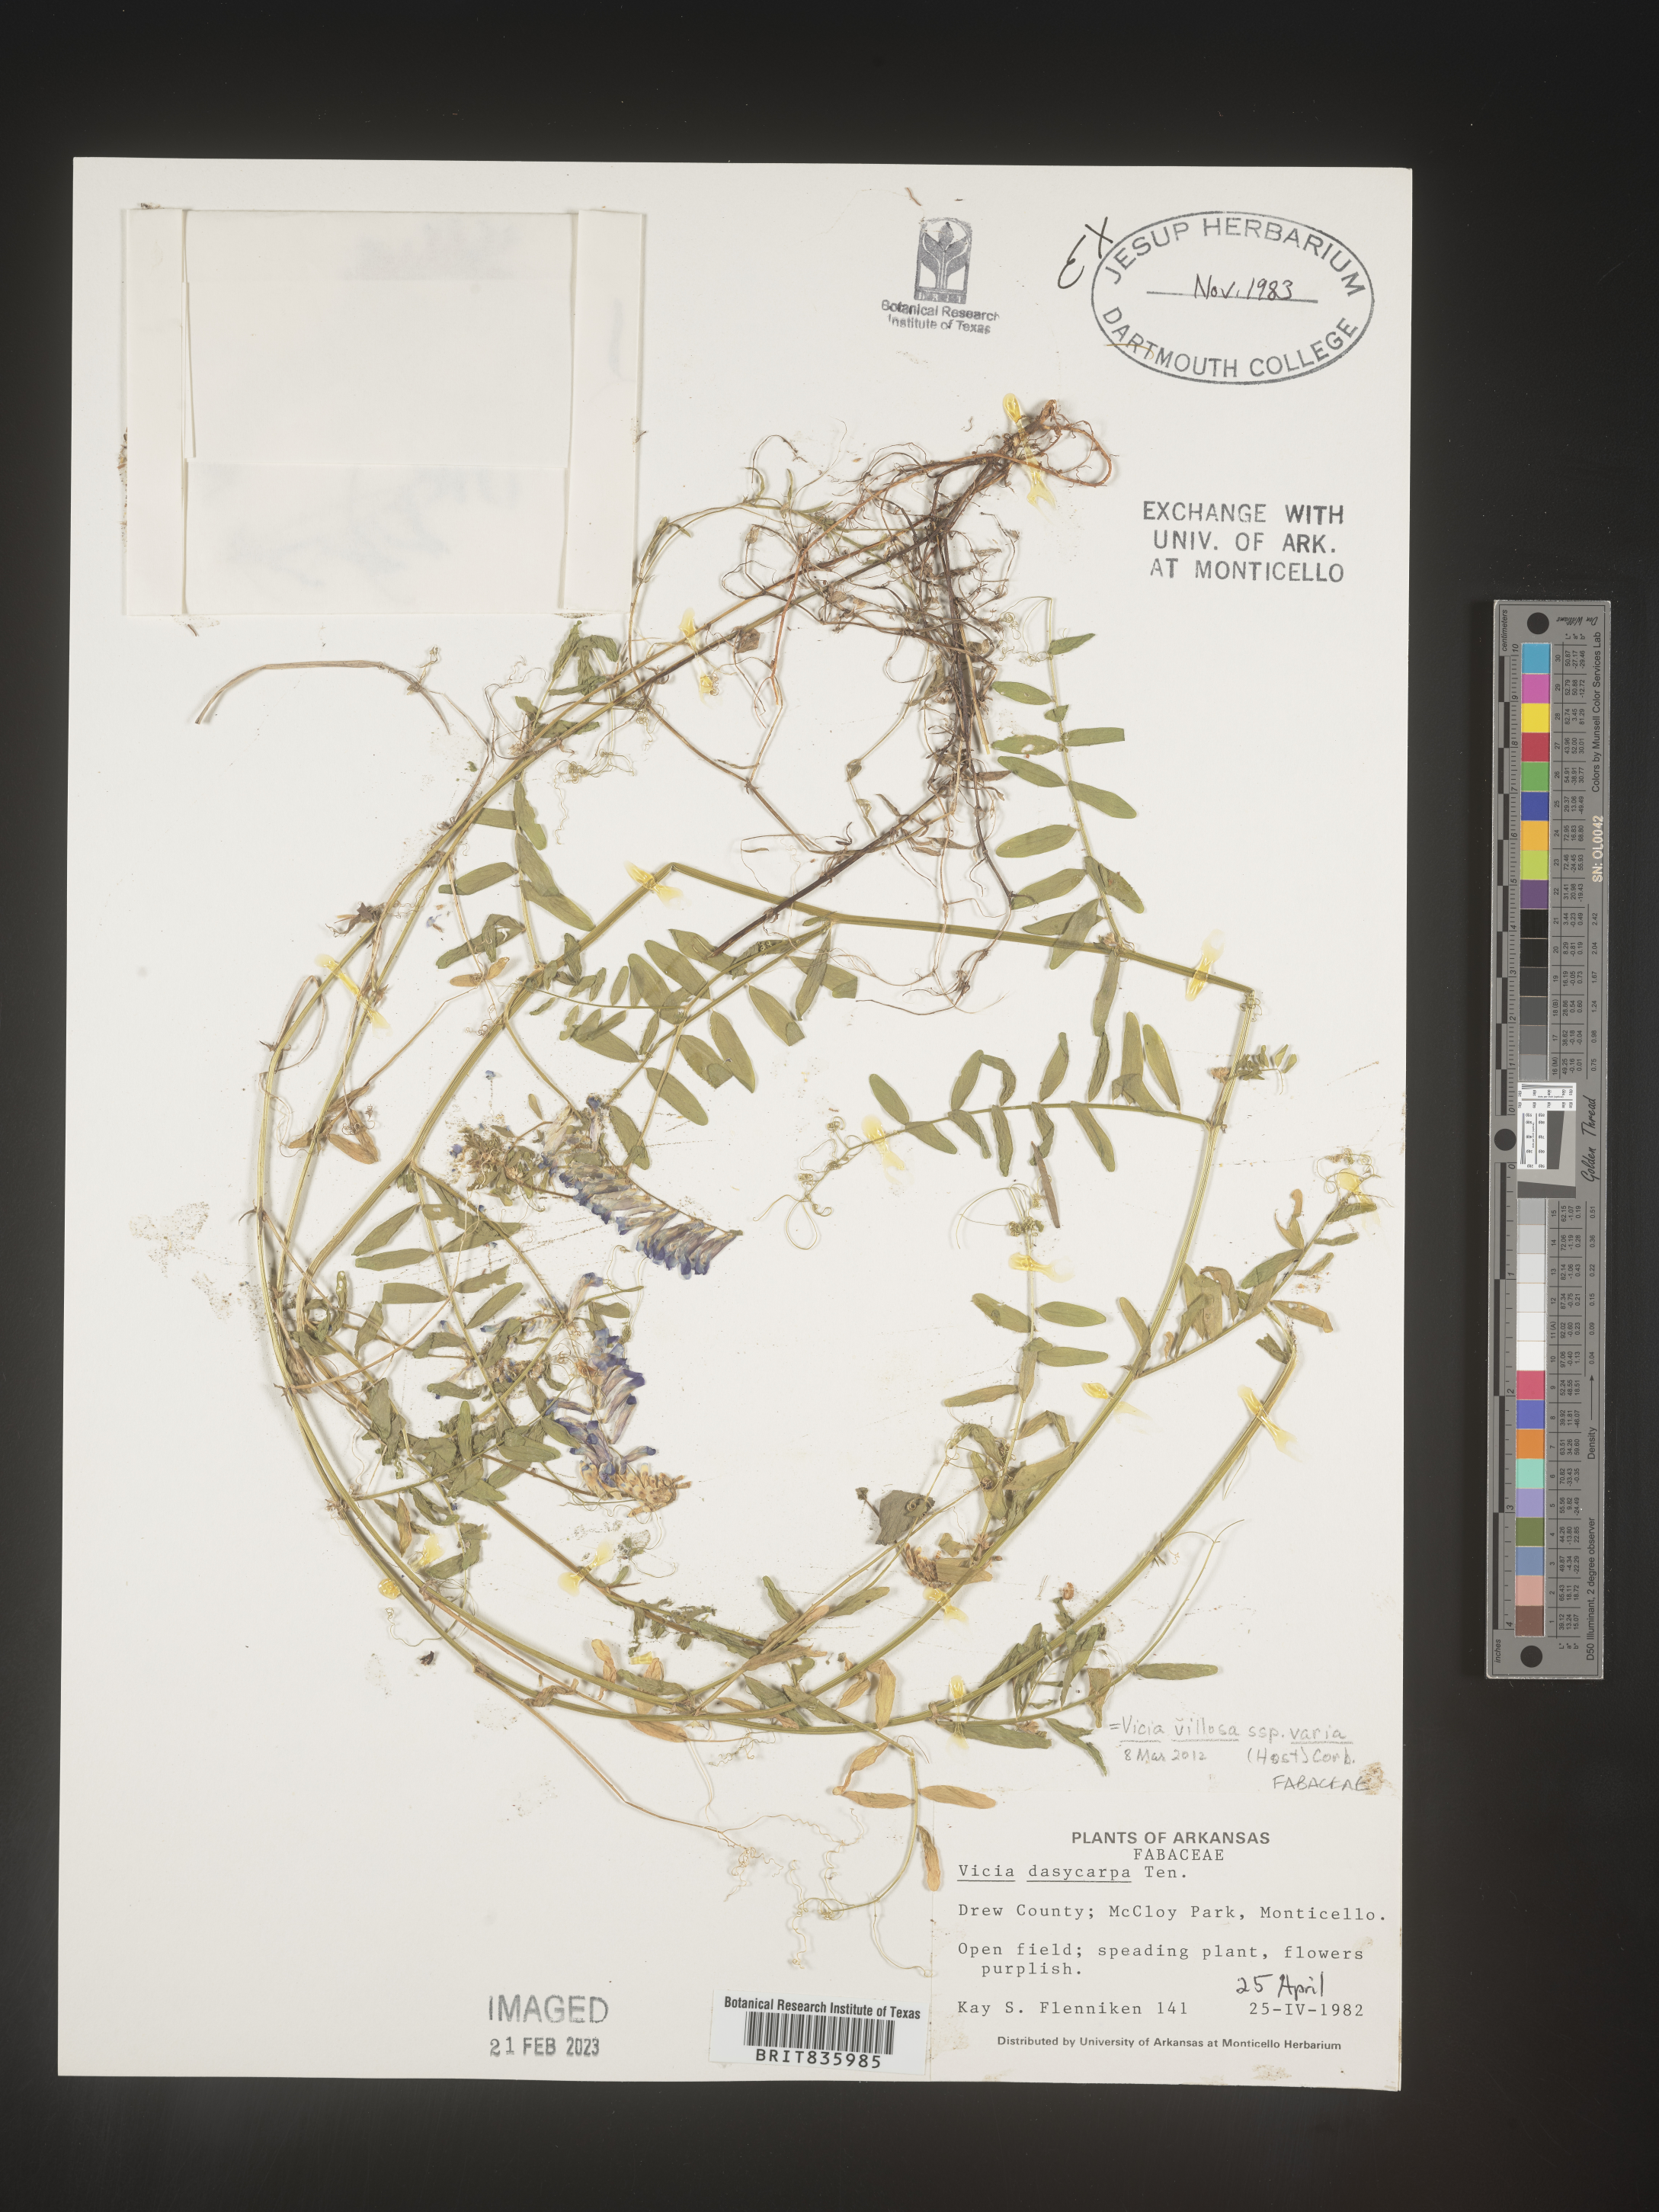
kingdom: Plantae
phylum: Tracheophyta
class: Magnoliopsida
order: Fabales
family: Fabaceae
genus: Vicia
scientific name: Vicia villosa
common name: Fodder vetch
